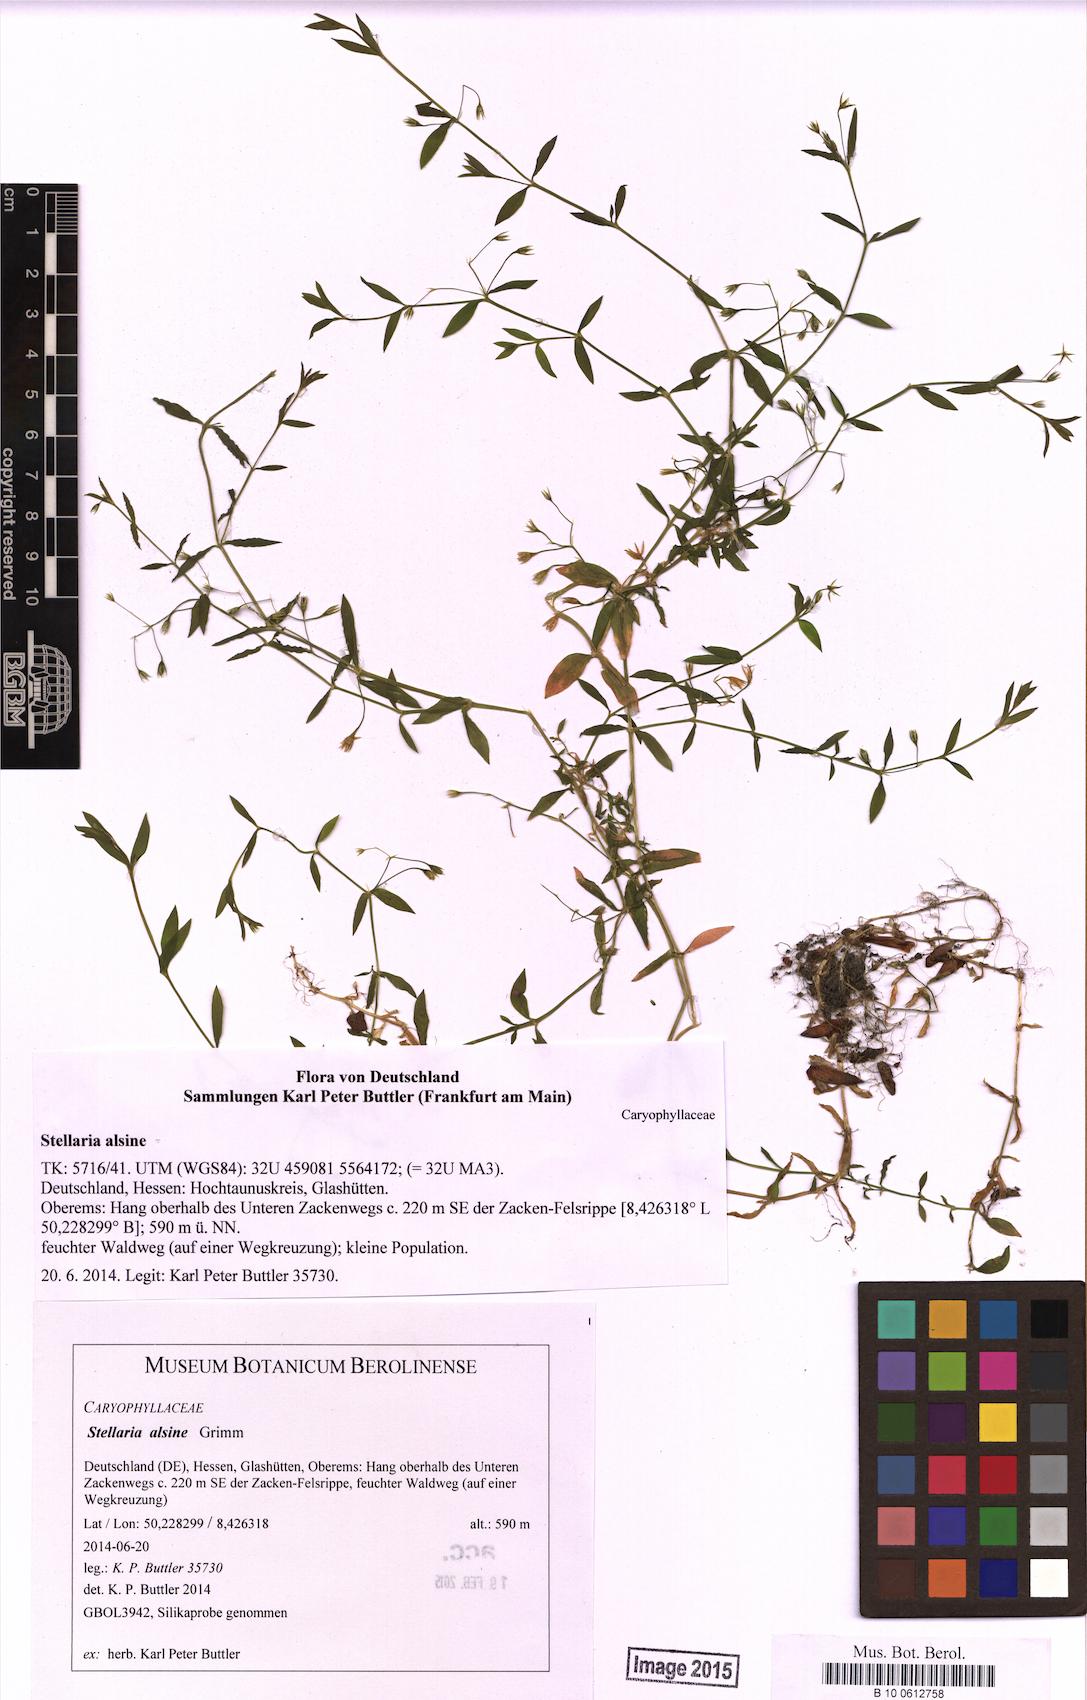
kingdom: Plantae
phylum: Tracheophyta
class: Magnoliopsida
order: Caryophyllales
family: Caryophyllaceae
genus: Stellaria
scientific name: Stellaria alsine
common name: Bog stitchwort
